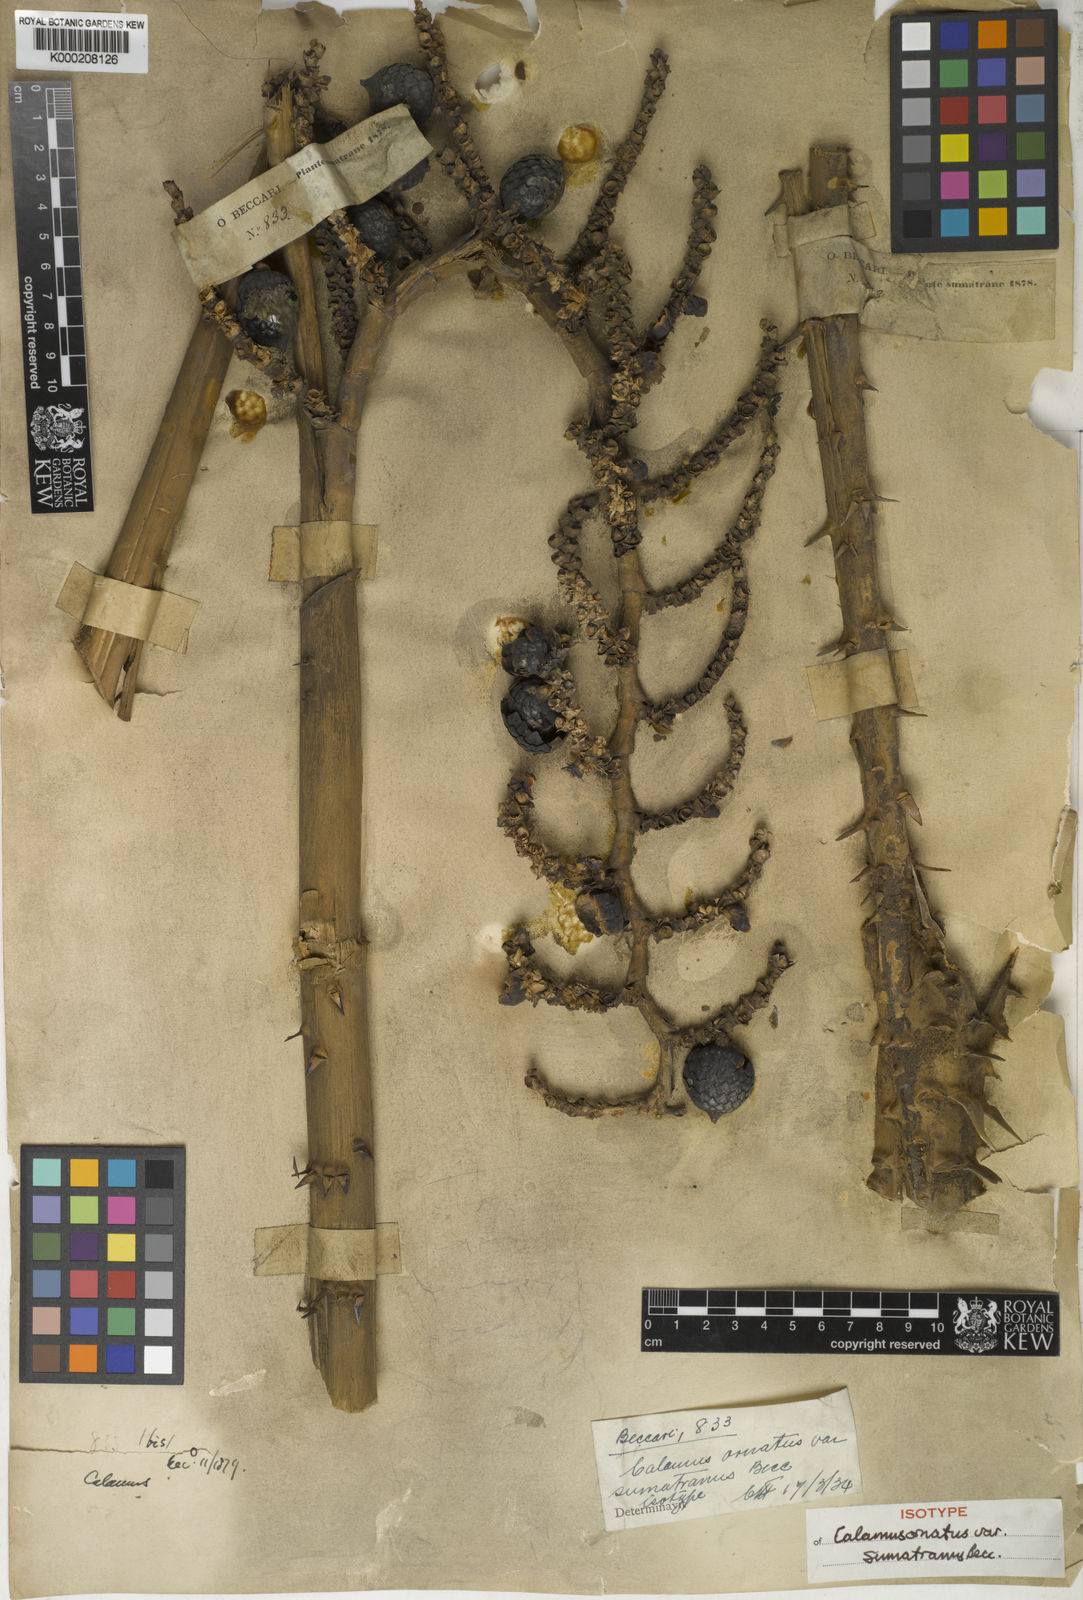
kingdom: Plantae
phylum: Tracheophyta
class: Liliopsida
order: Arecales
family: Arecaceae
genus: Calamus
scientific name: Calamus ornatus
